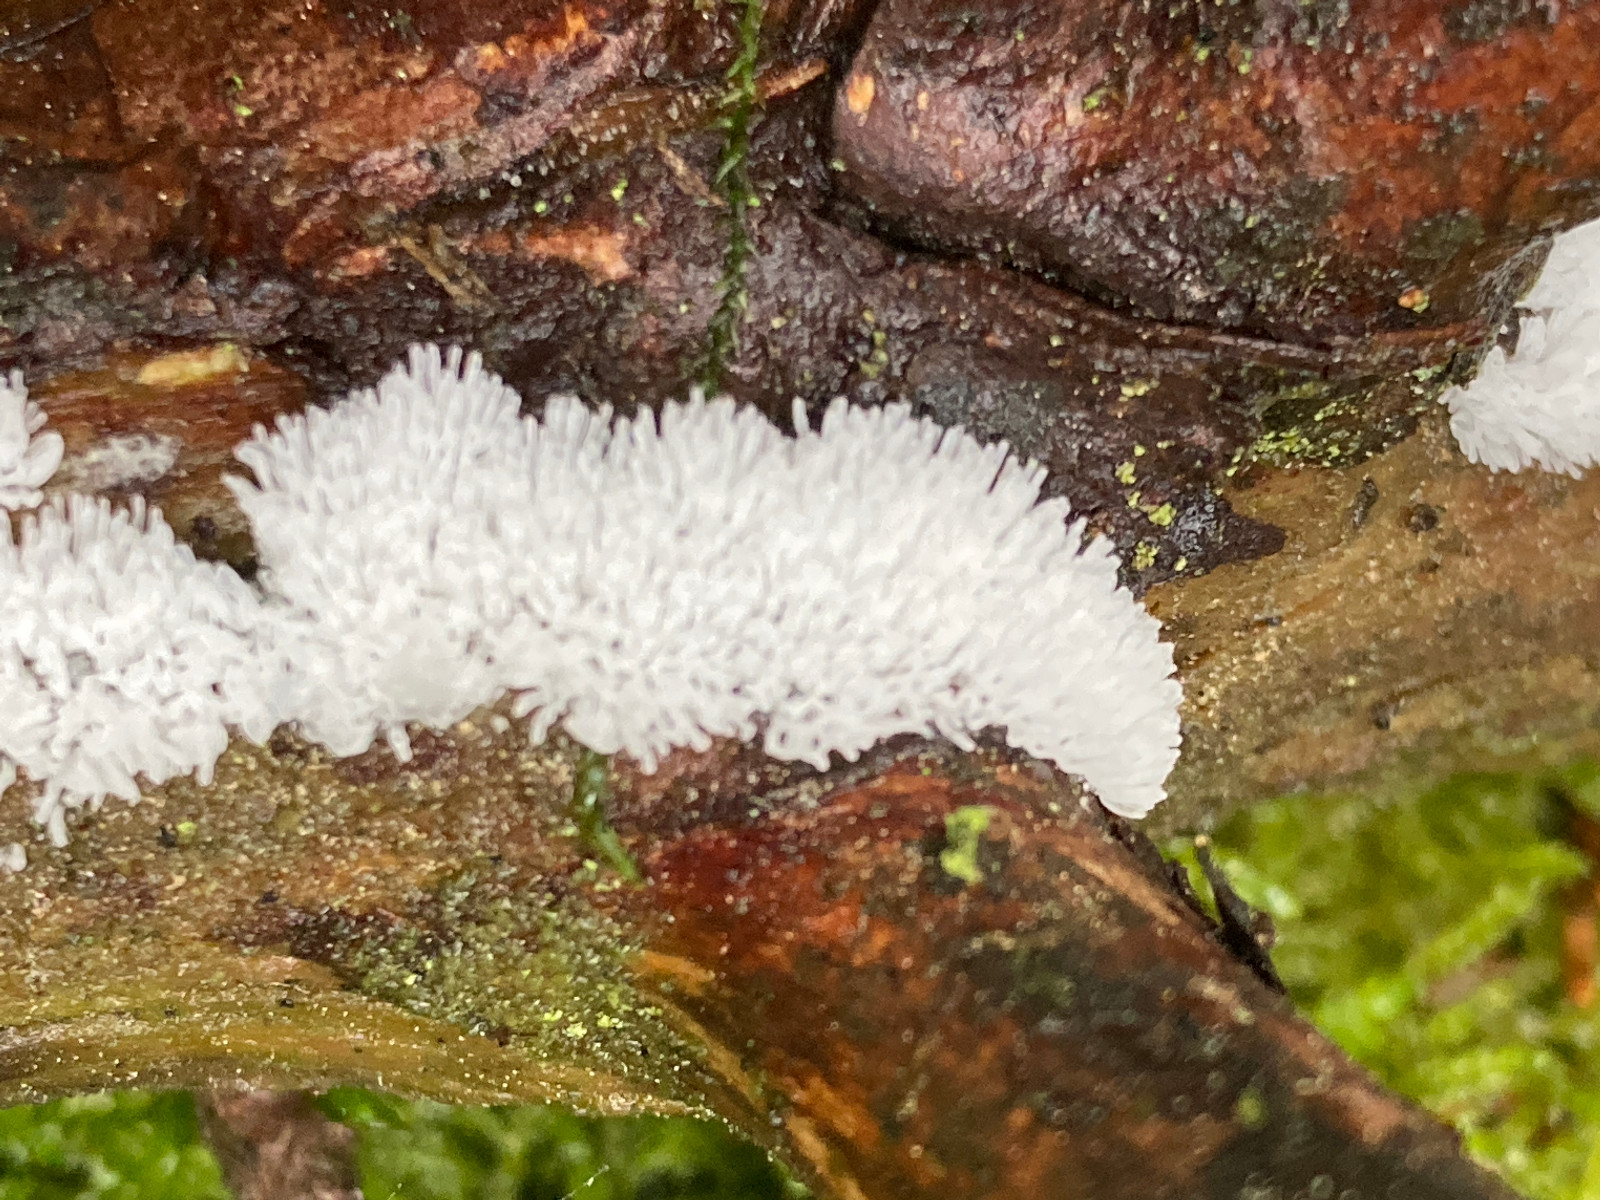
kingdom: Protozoa
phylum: Mycetozoa
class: Protosteliomycetes
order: Ceratiomyxales
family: Ceratiomyxaceae
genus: Ceratiomyxa
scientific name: Ceratiomyxa fruticulosa
